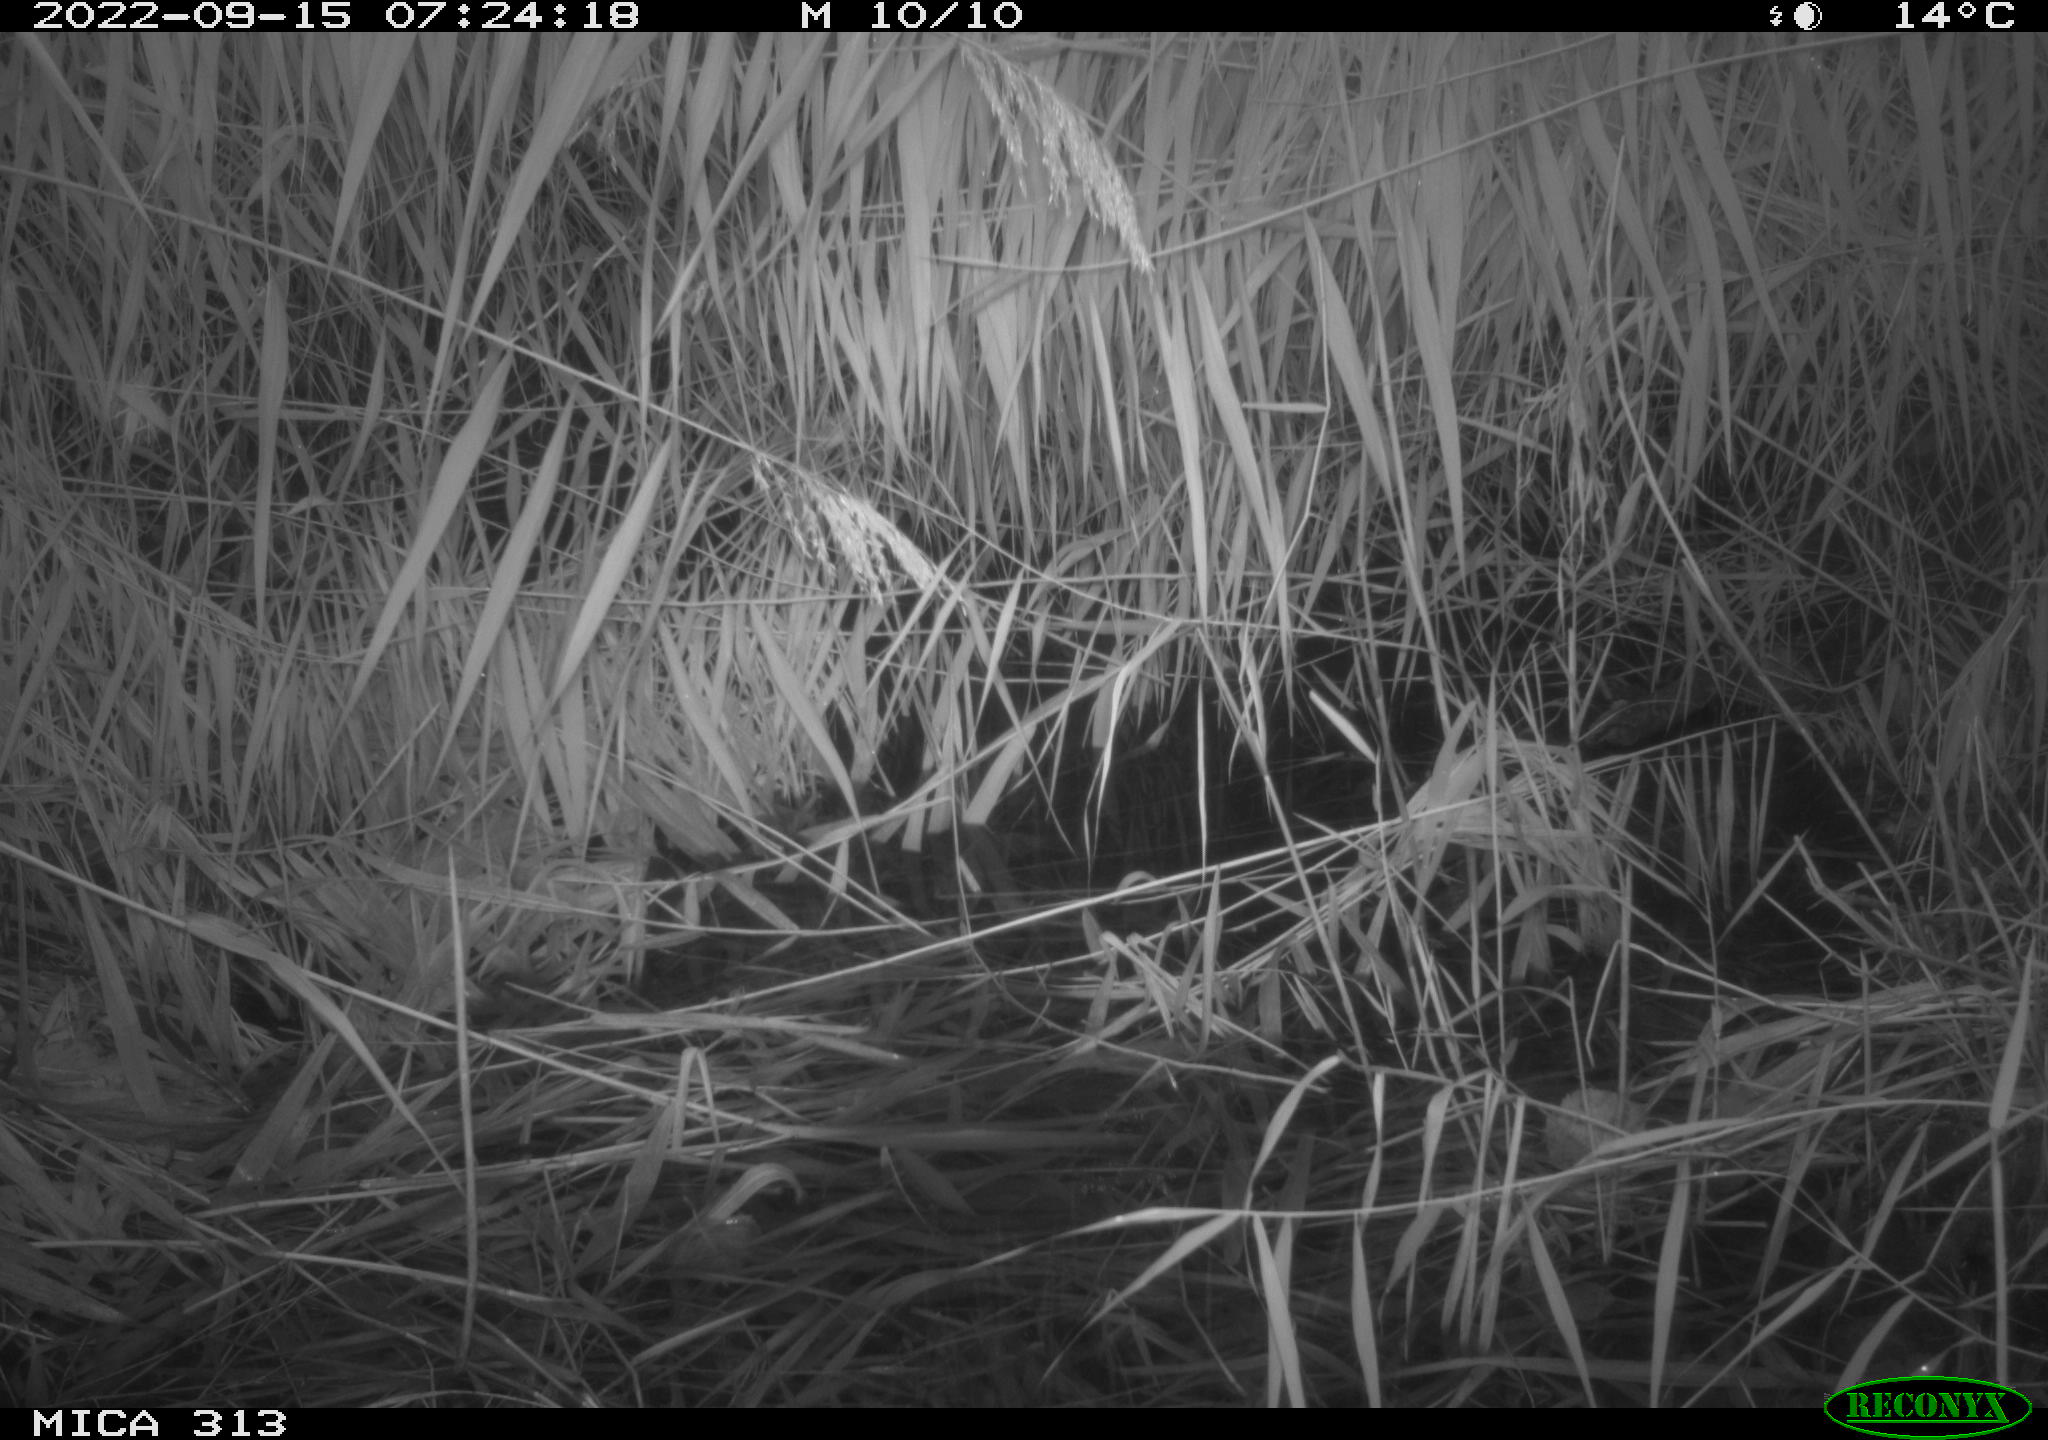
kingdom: Animalia
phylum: Chordata
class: Mammalia
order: Rodentia
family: Muridae
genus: Rattus
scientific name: Rattus norvegicus
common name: Brown rat
